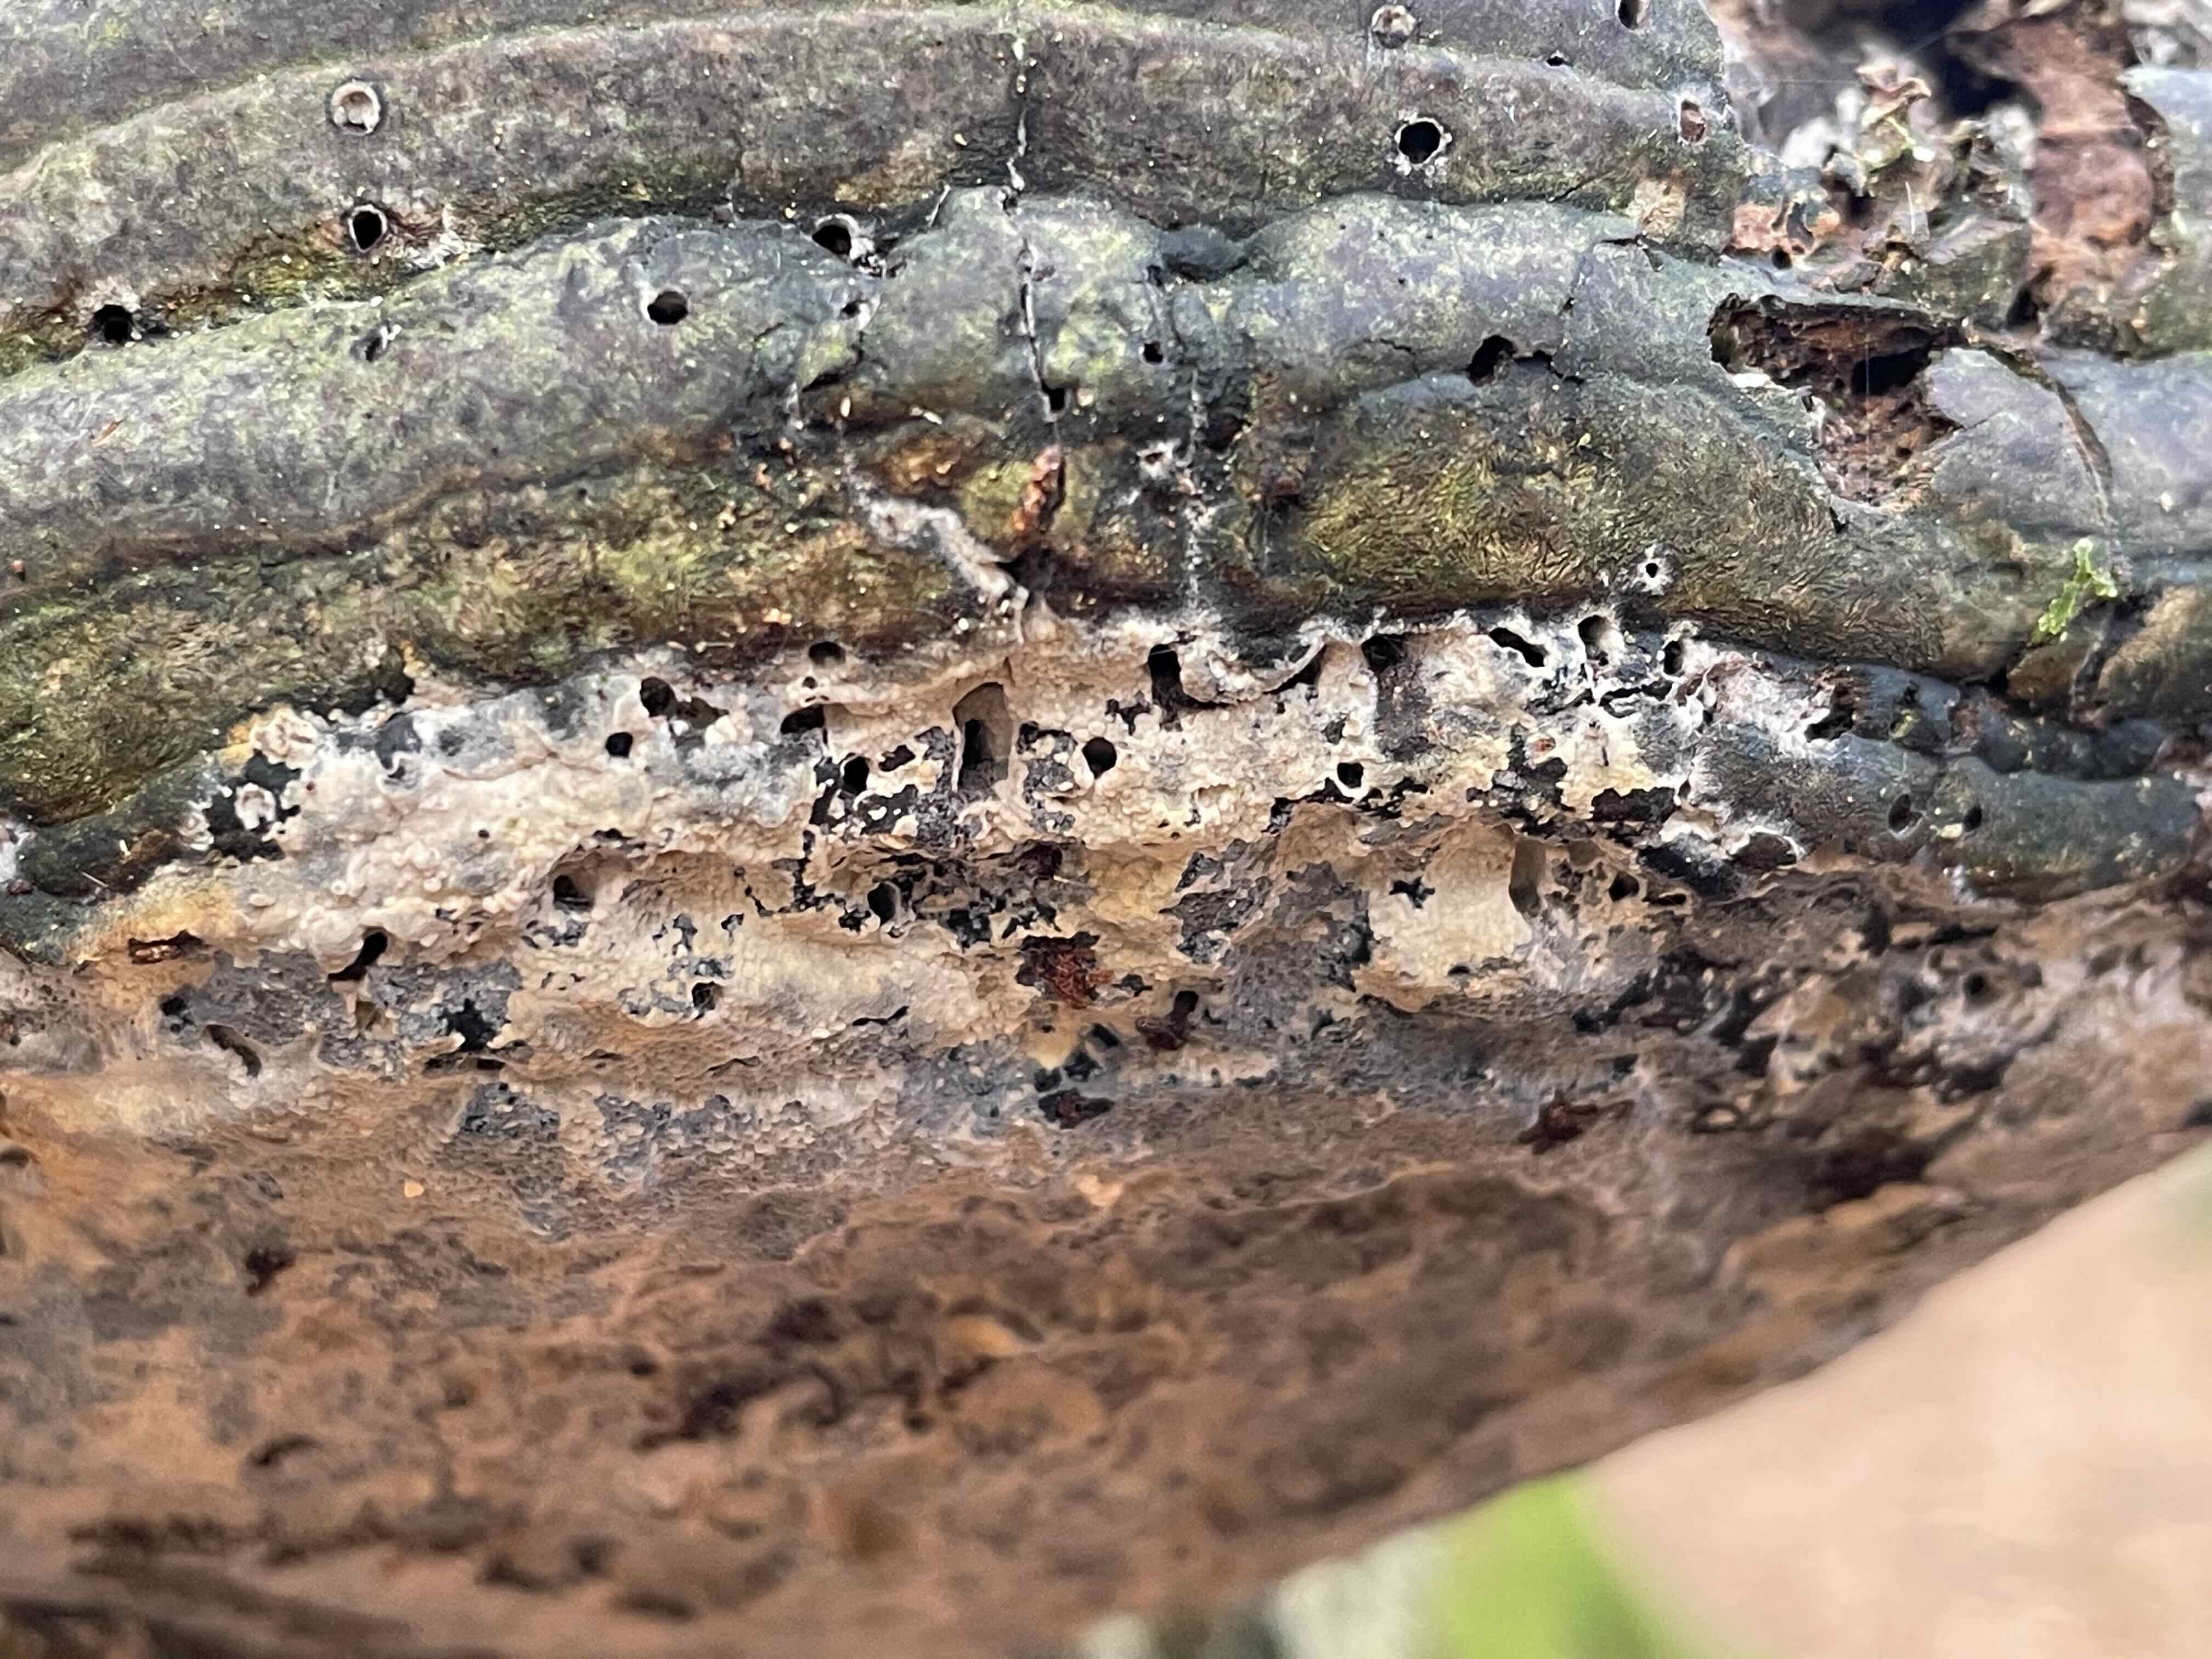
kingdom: Fungi
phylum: Basidiomycota
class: Agaricomycetes
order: Corticiales
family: Corticiaceae
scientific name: Corticiaceae
